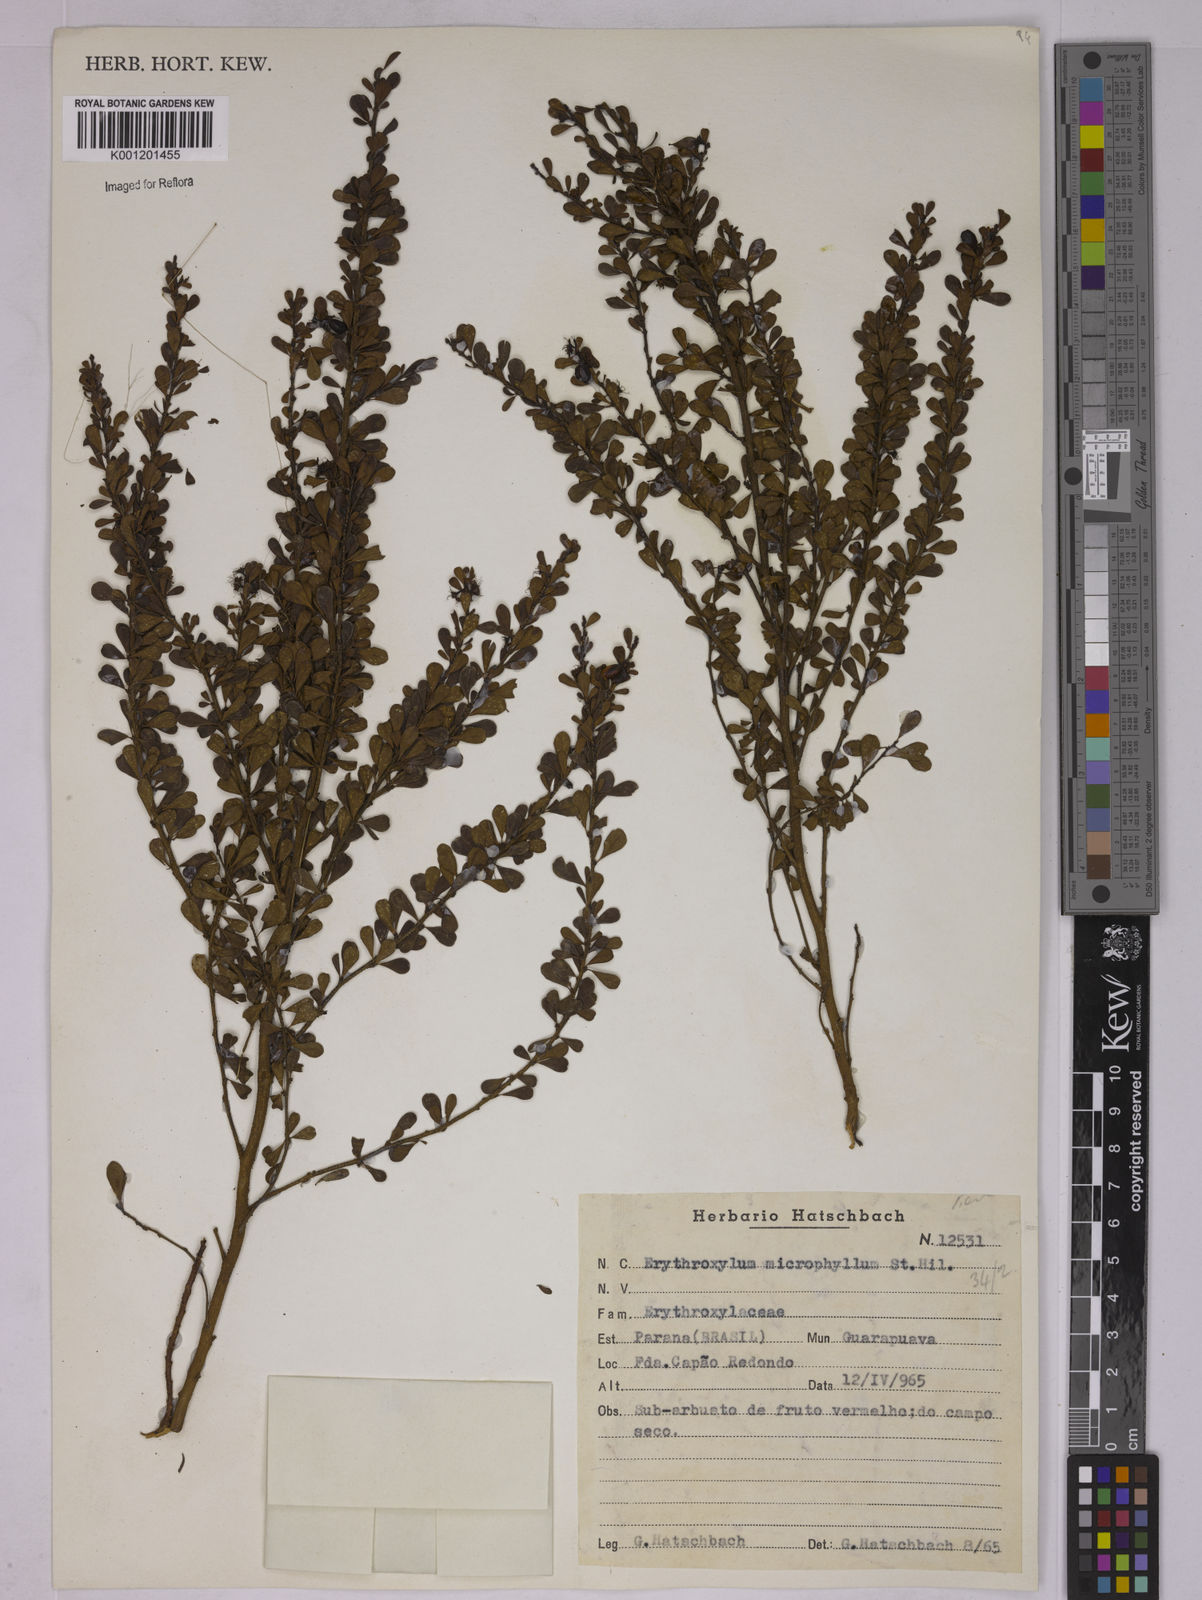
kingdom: Plantae
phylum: Tracheophyta
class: Magnoliopsida
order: Malpighiales
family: Erythroxylaceae
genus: Erythroxylum
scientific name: Erythroxylum microphyllum
